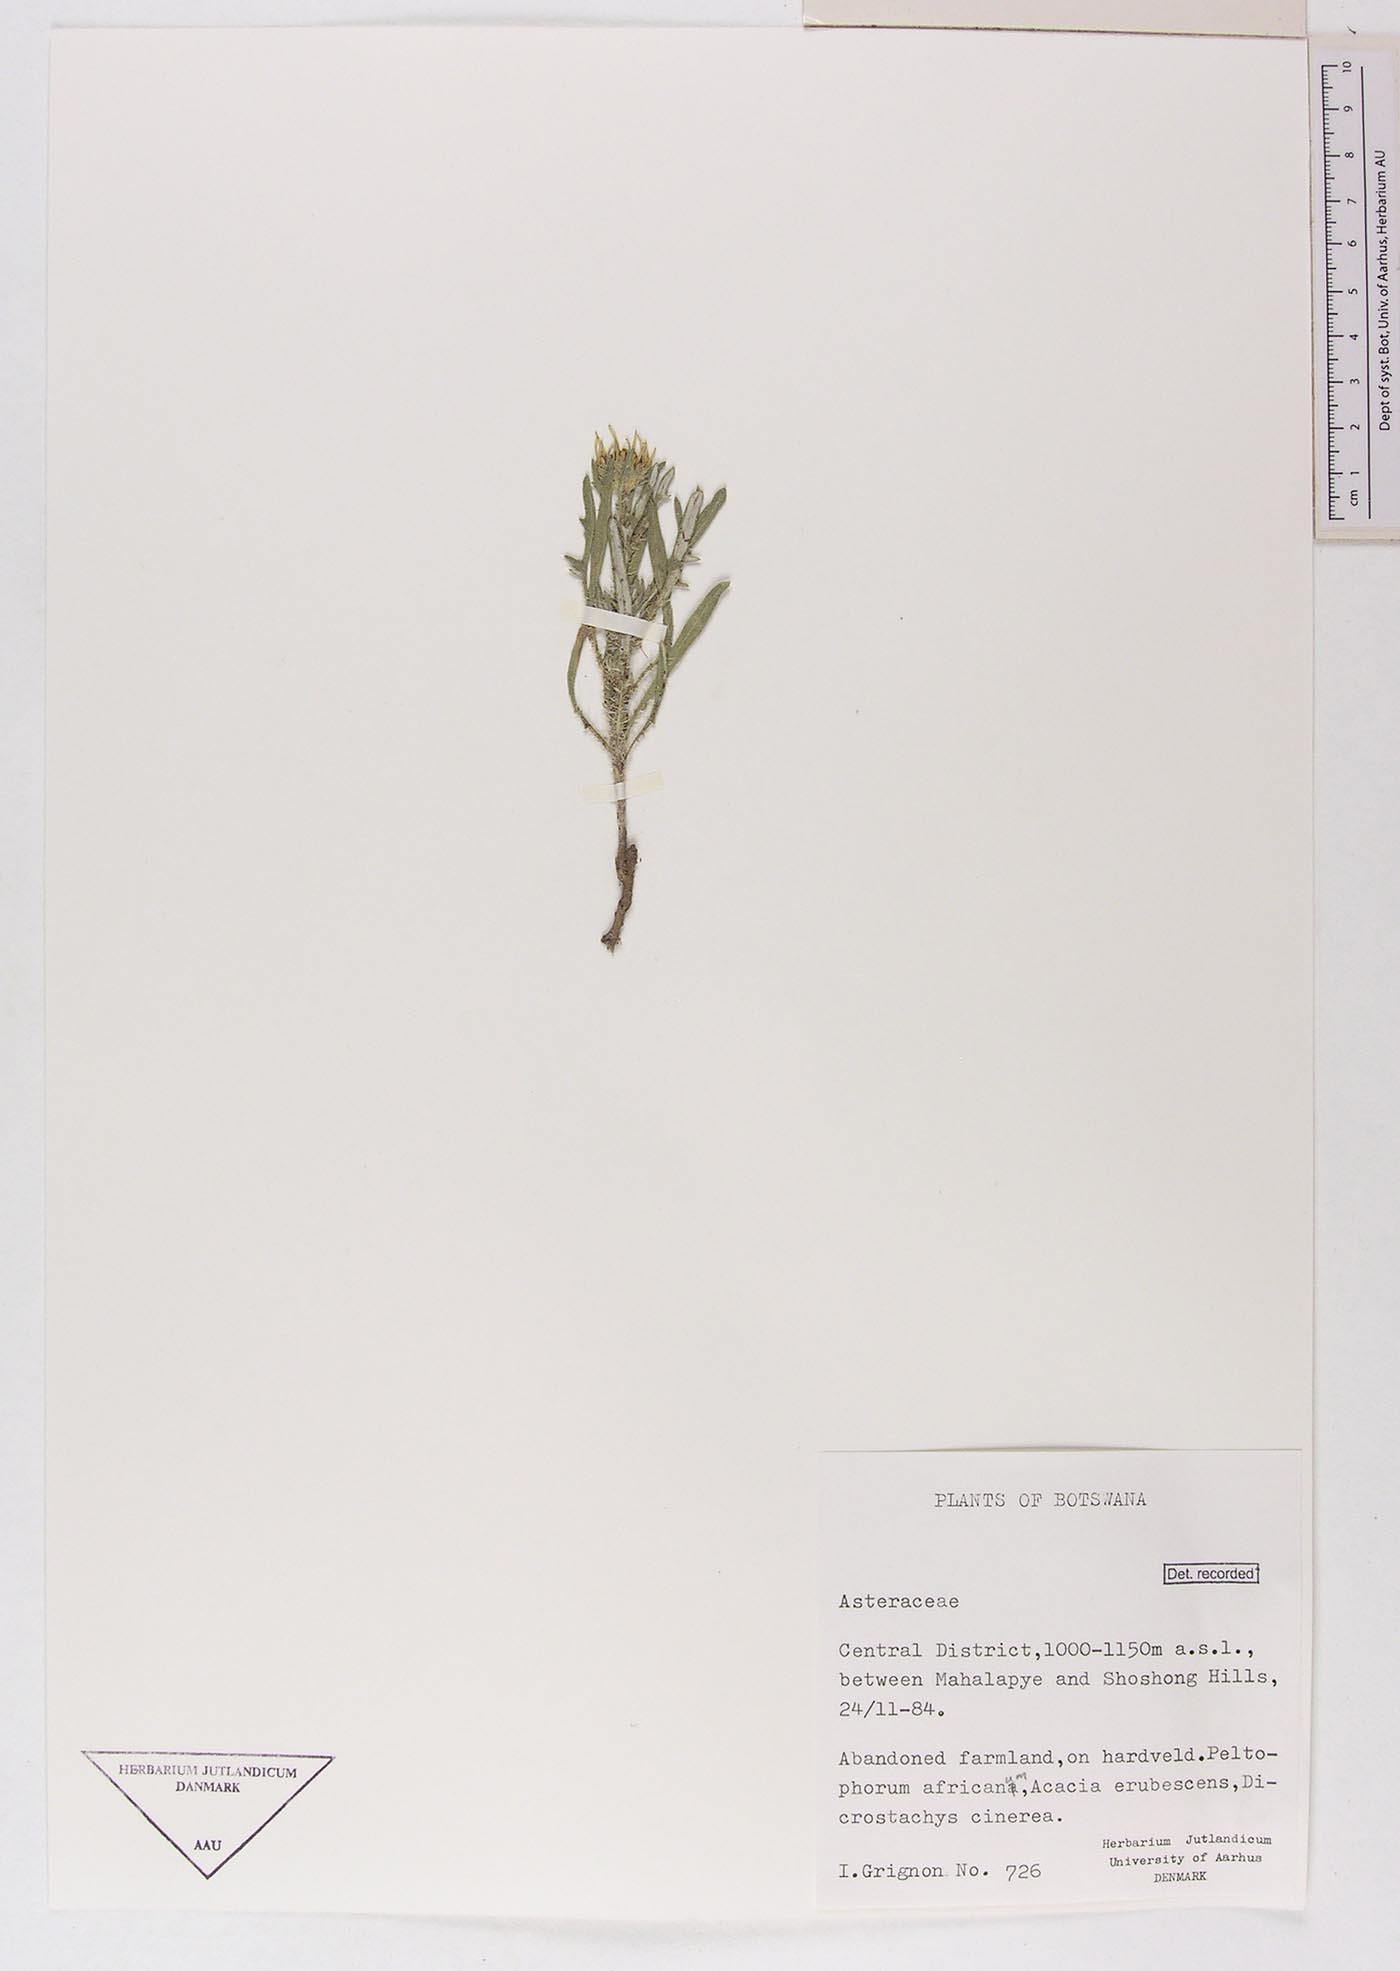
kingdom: Plantae
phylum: Tracheophyta
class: Magnoliopsida
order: Asterales
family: Asteraceae
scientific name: Asteraceae
